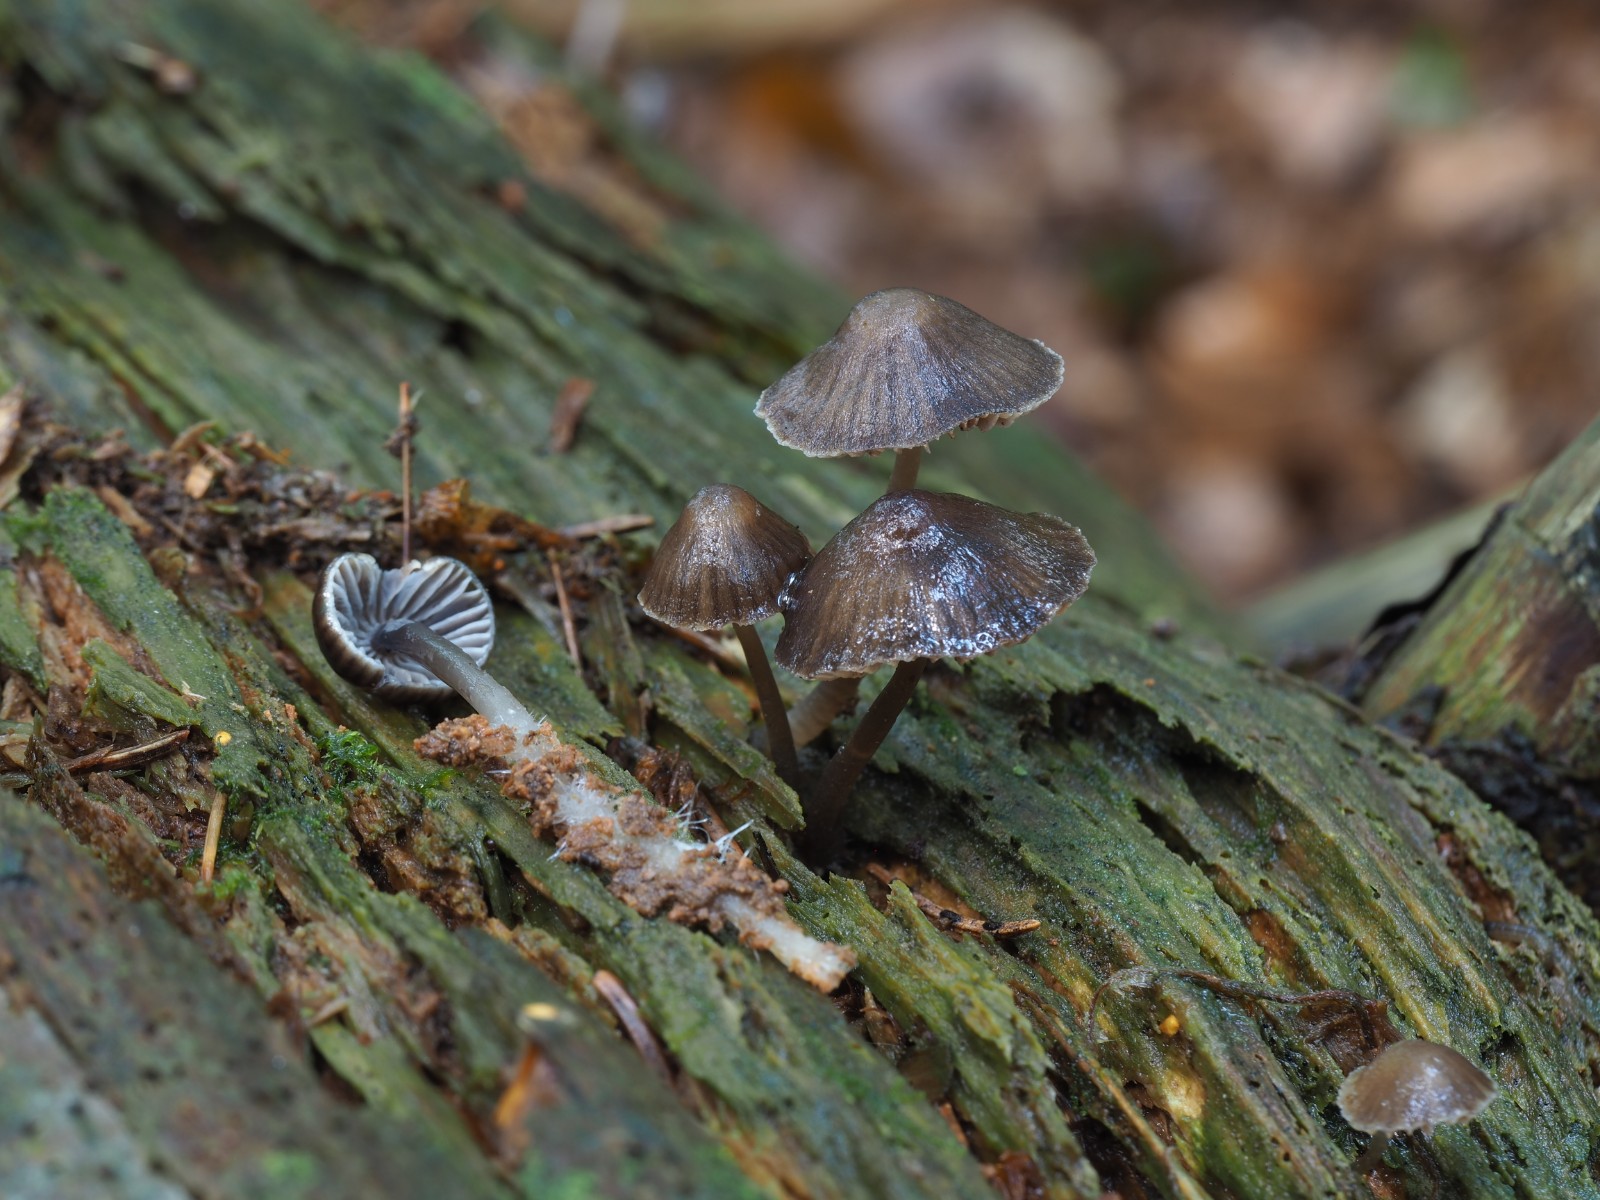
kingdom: Fungi
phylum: Basidiomycota
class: Agaricomycetes
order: Agaricales
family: Mycenaceae
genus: Mycena
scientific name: Mycena stipata
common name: stinkende huesvamp
